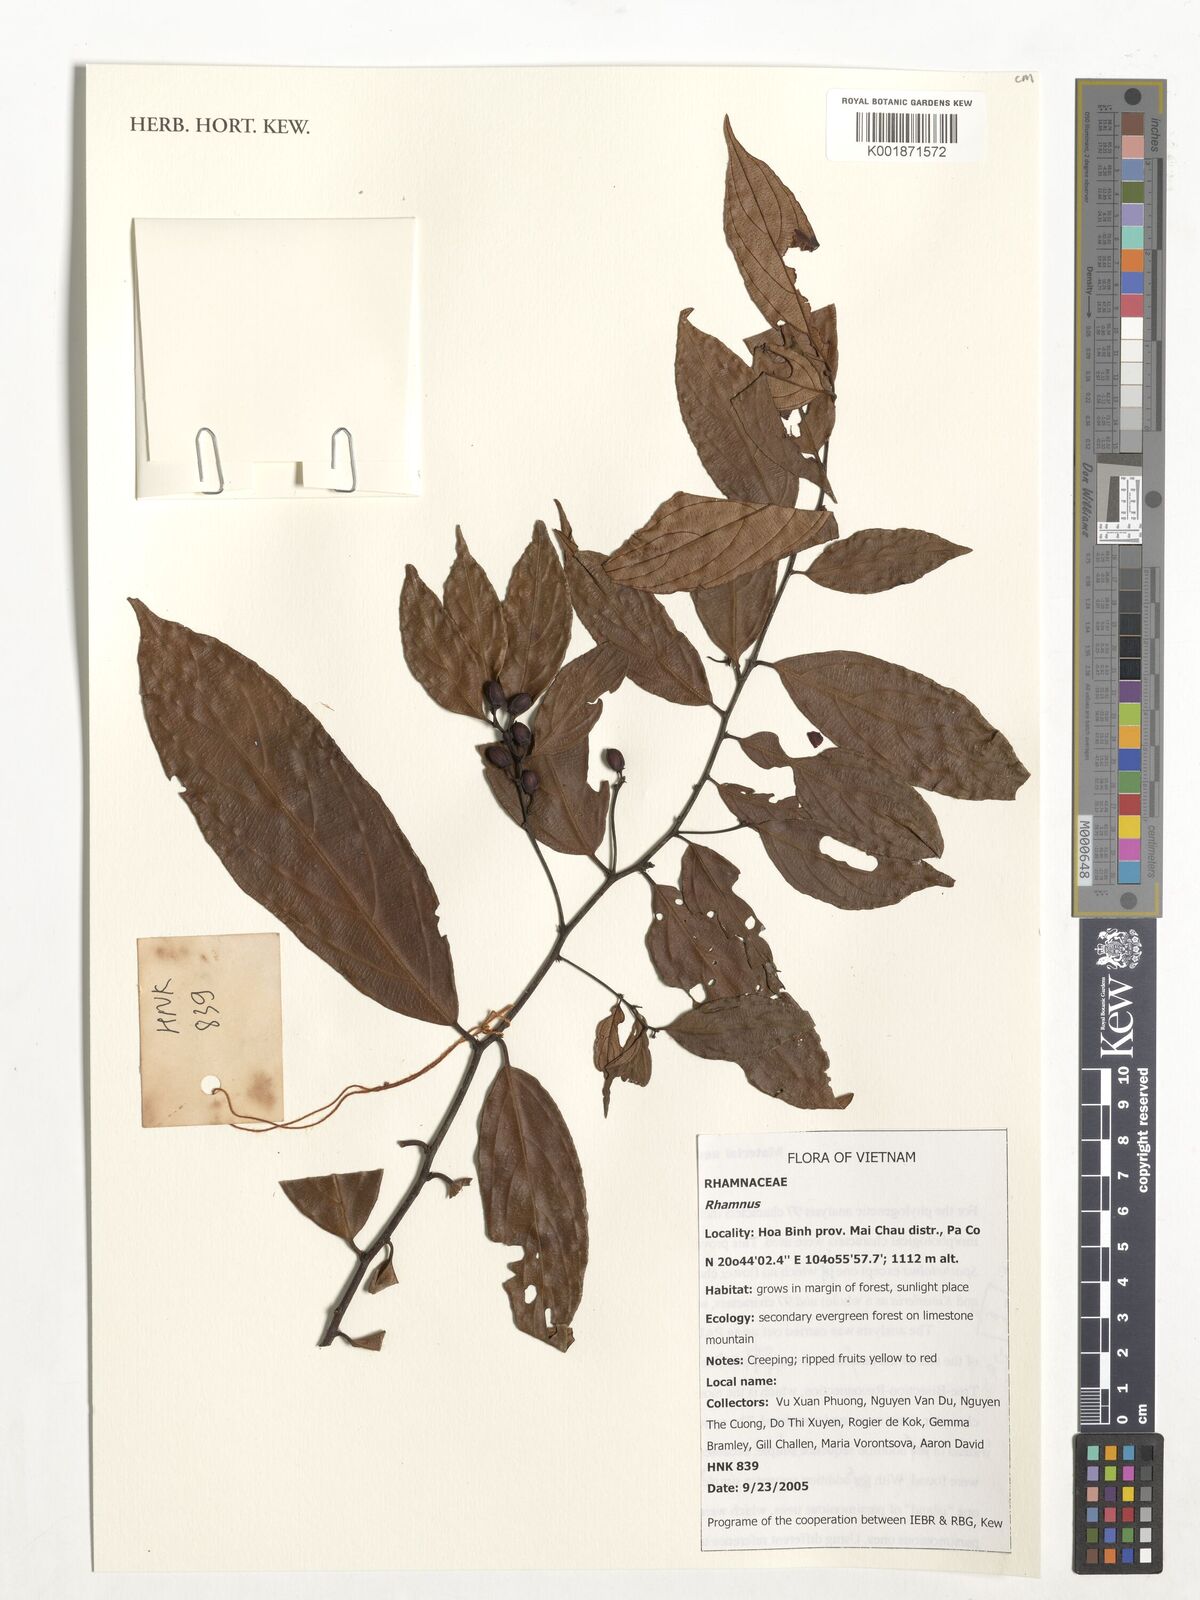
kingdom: Plantae
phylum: Tracheophyta
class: Magnoliopsida
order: Rosales
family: Rhamnaceae
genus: Rhamnus
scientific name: Rhamnus
